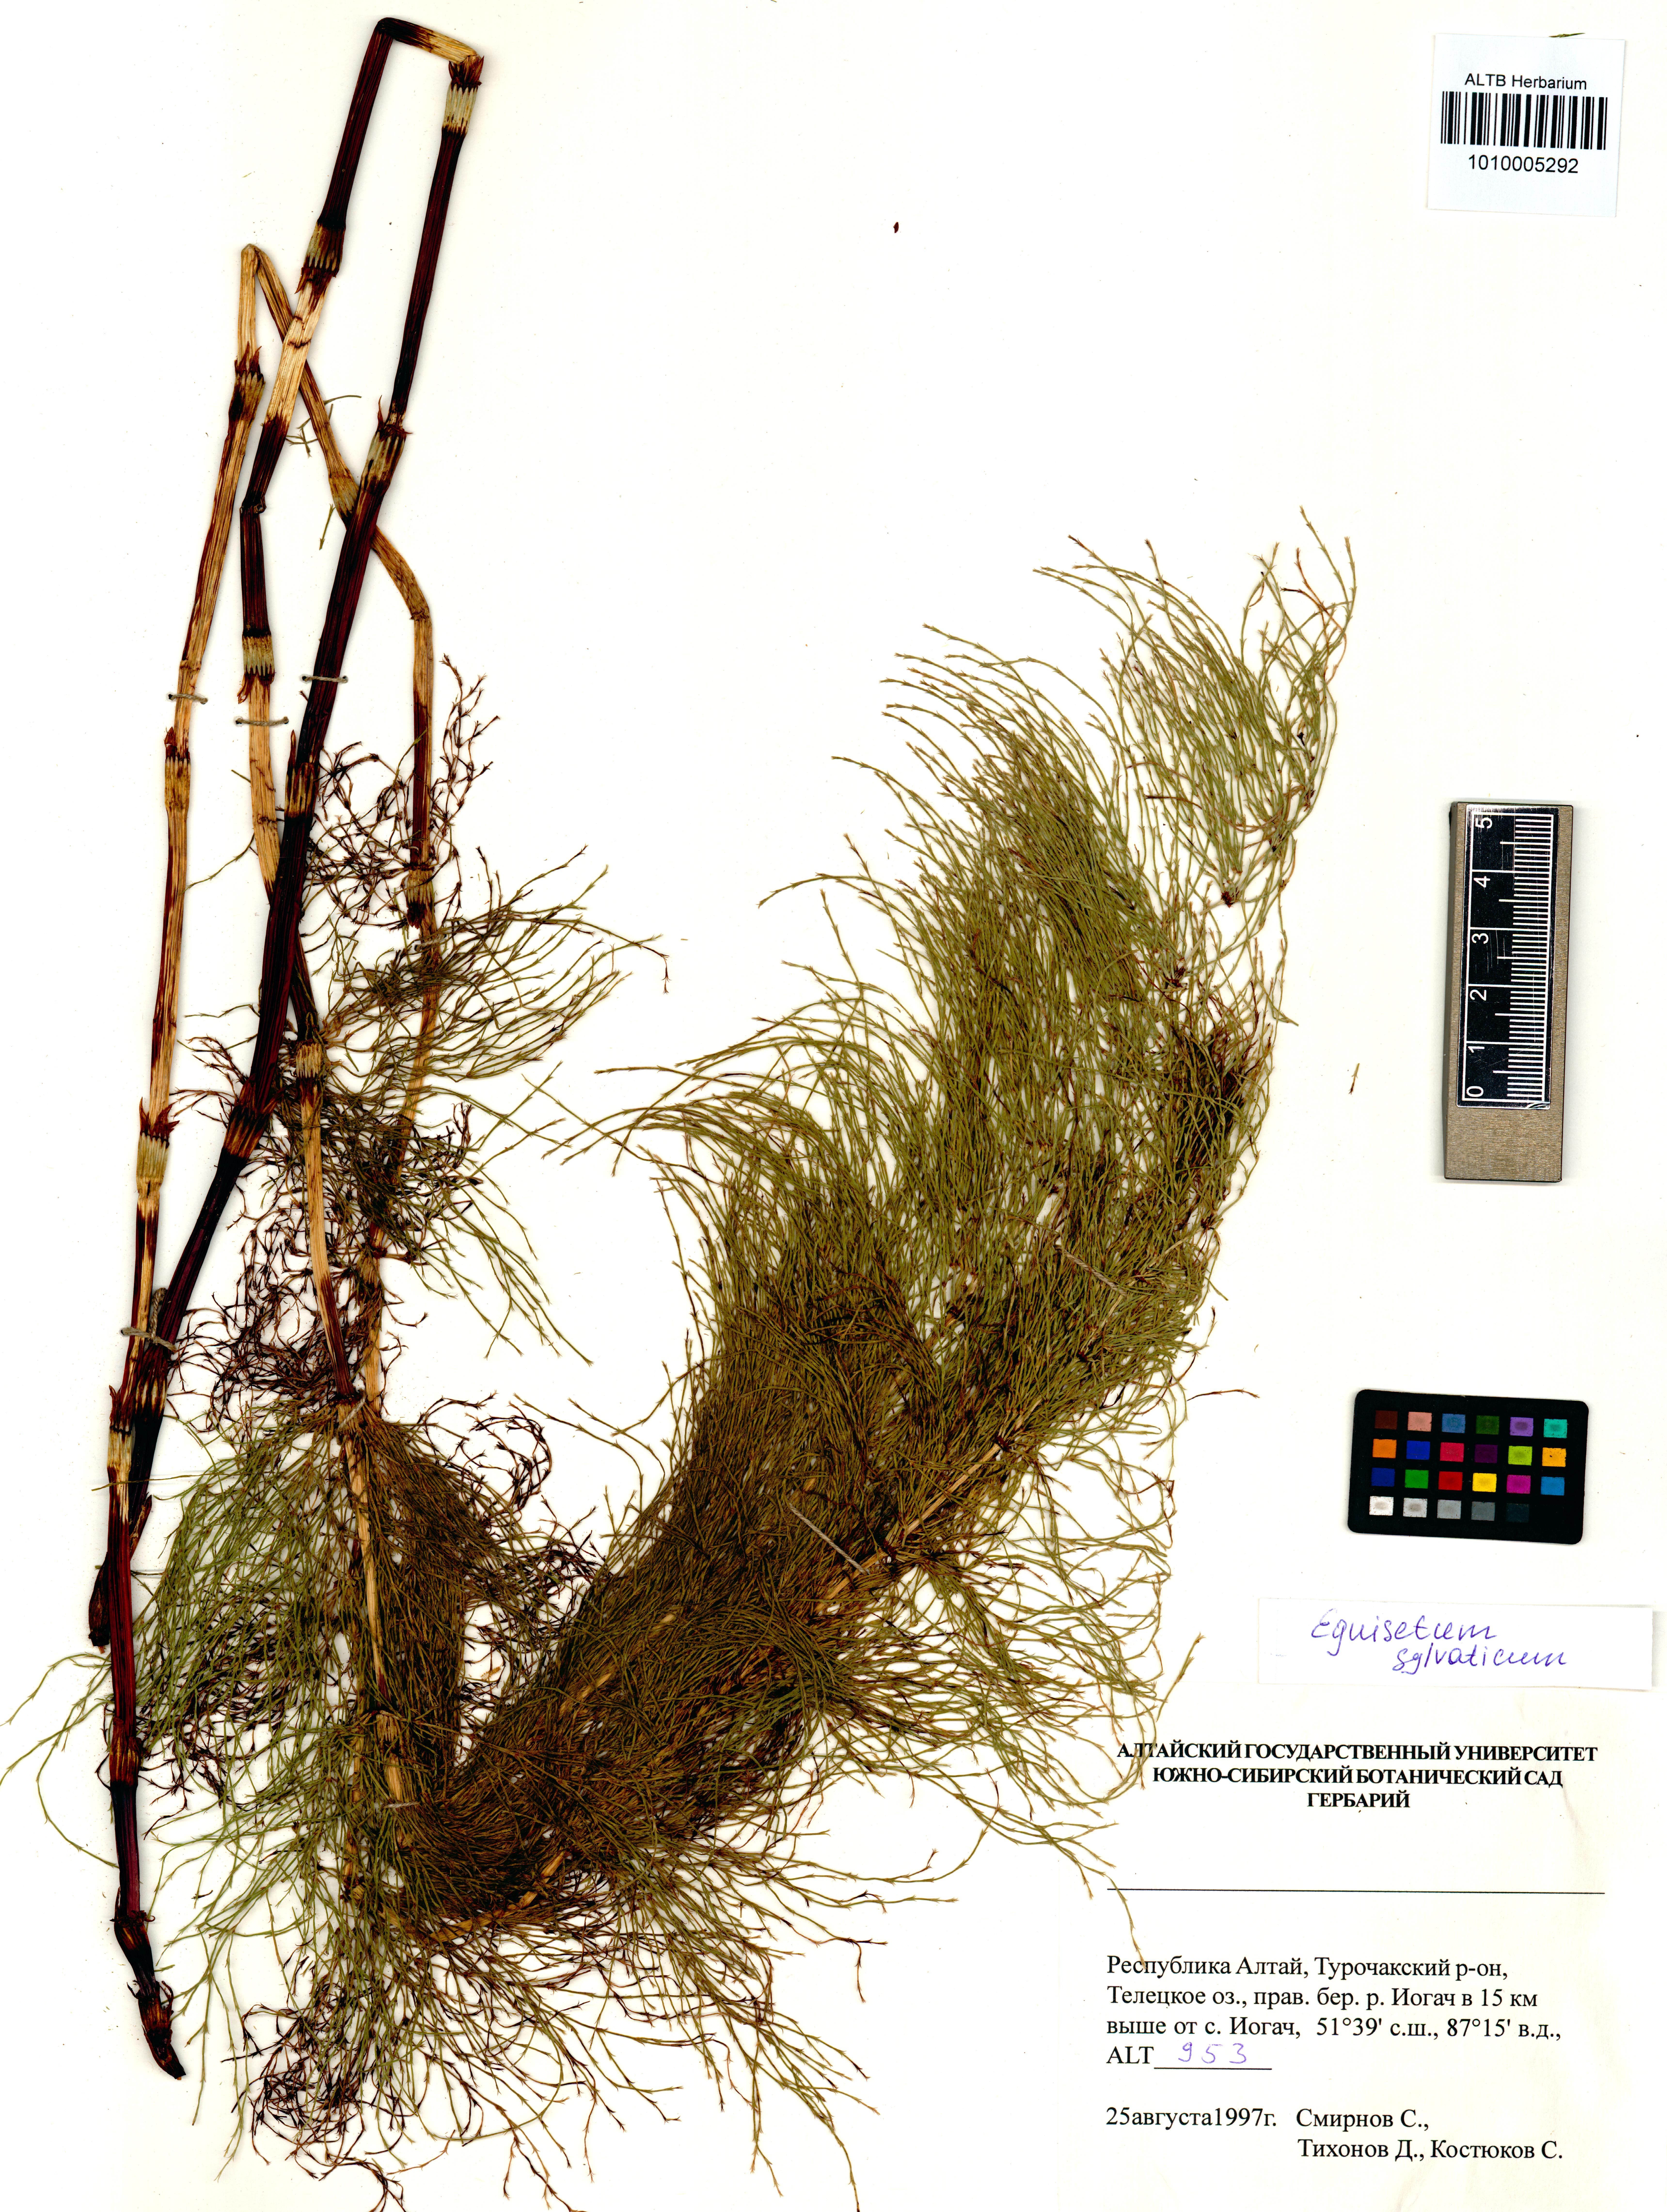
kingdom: Plantae
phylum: Tracheophyta
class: Polypodiopsida
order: Equisetales
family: Equisetaceae
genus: Equisetum
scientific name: Equisetum sylvaticum
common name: Wood horsetail
